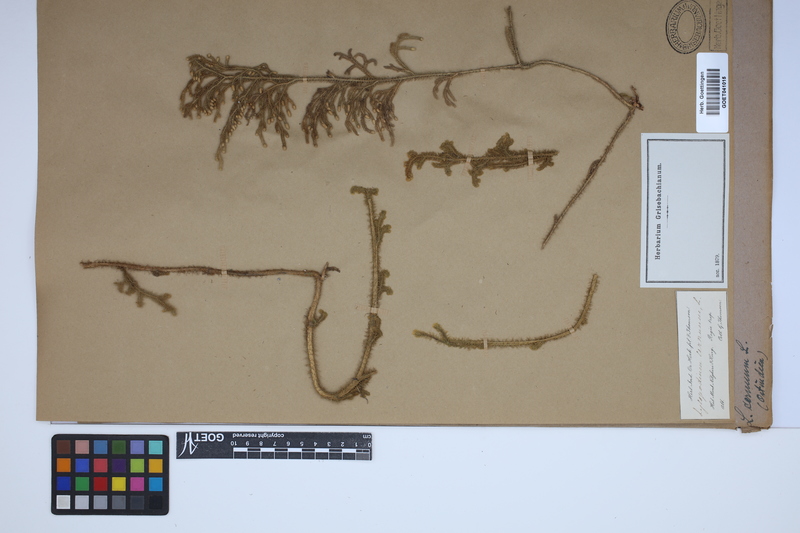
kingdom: Plantae
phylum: Tracheophyta
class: Lycopodiopsida
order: Lycopodiales
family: Lycopodiaceae
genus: Palhinhaea
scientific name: Palhinhaea cernua
